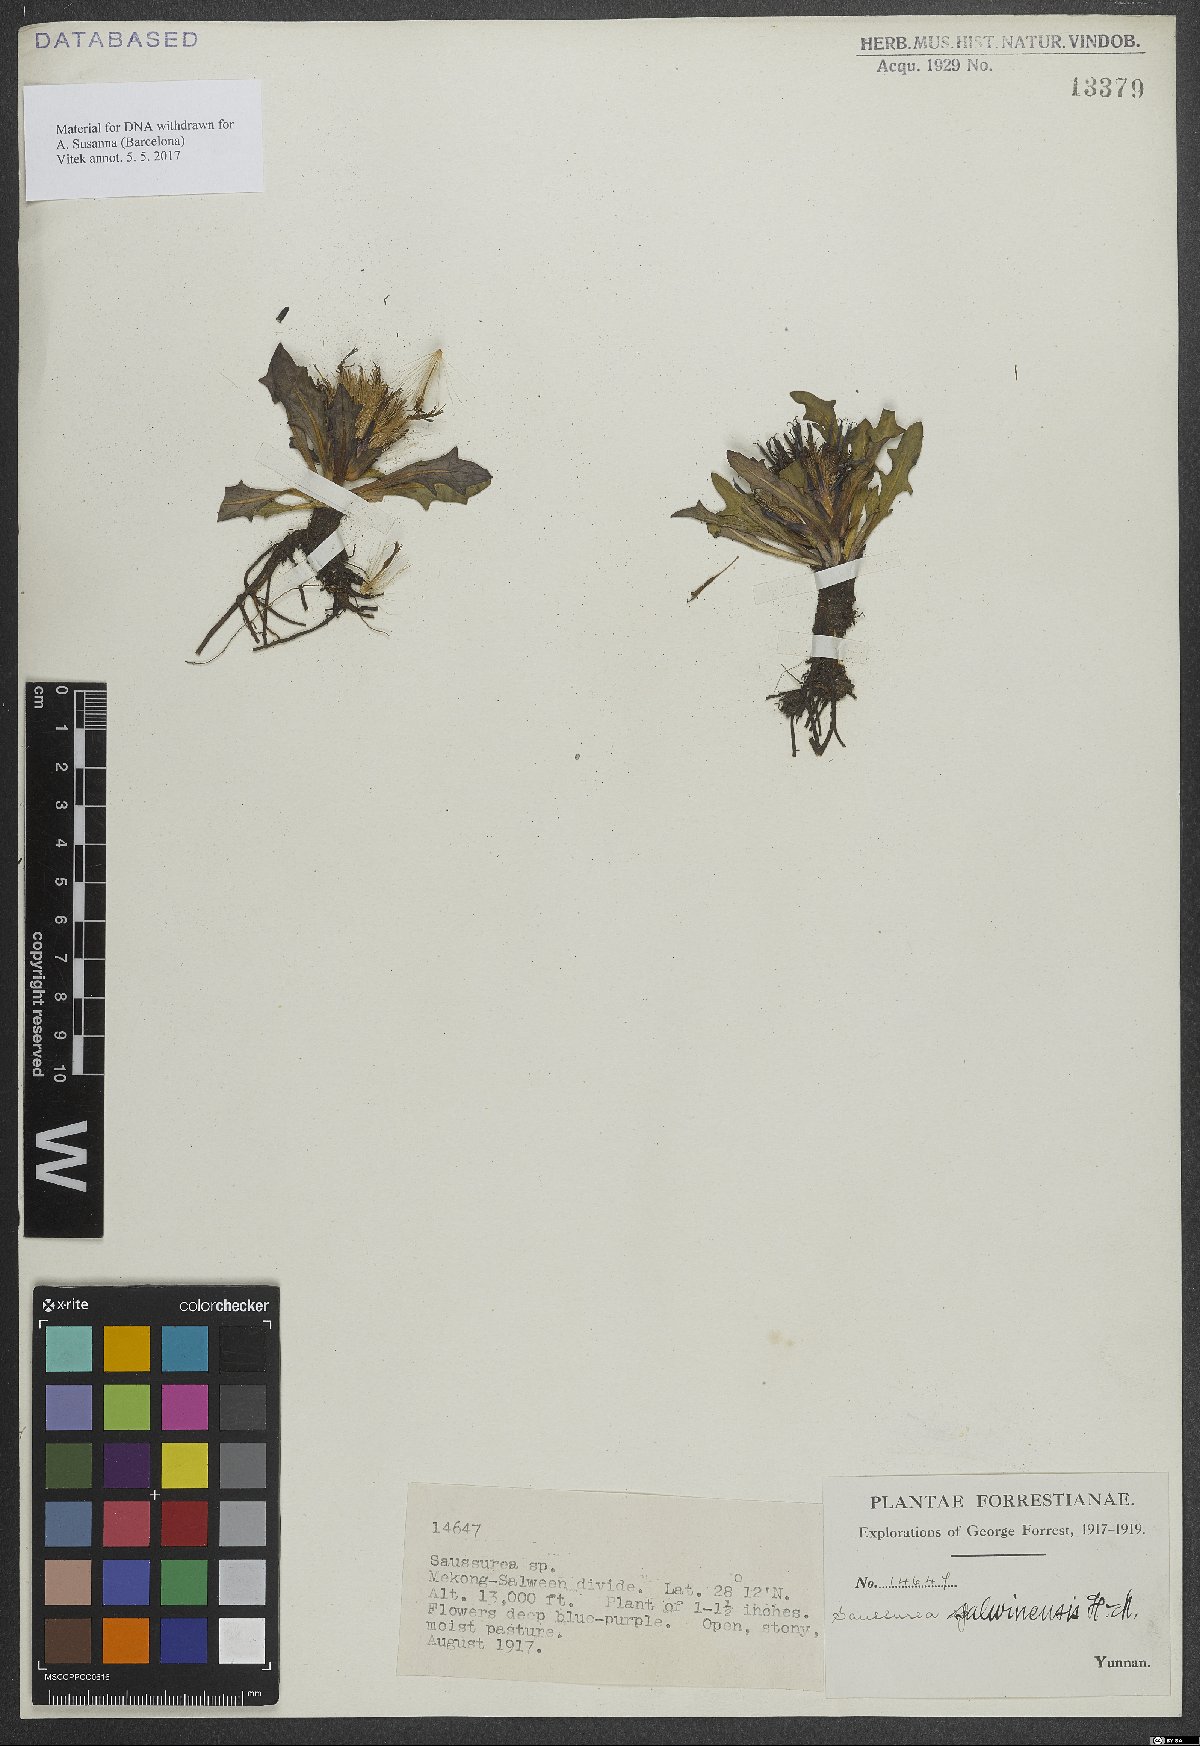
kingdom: Plantae
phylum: Tracheophyta
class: Magnoliopsida
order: Asterales
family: Asteraceae
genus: Saussurea
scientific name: Saussurea salwinensis
